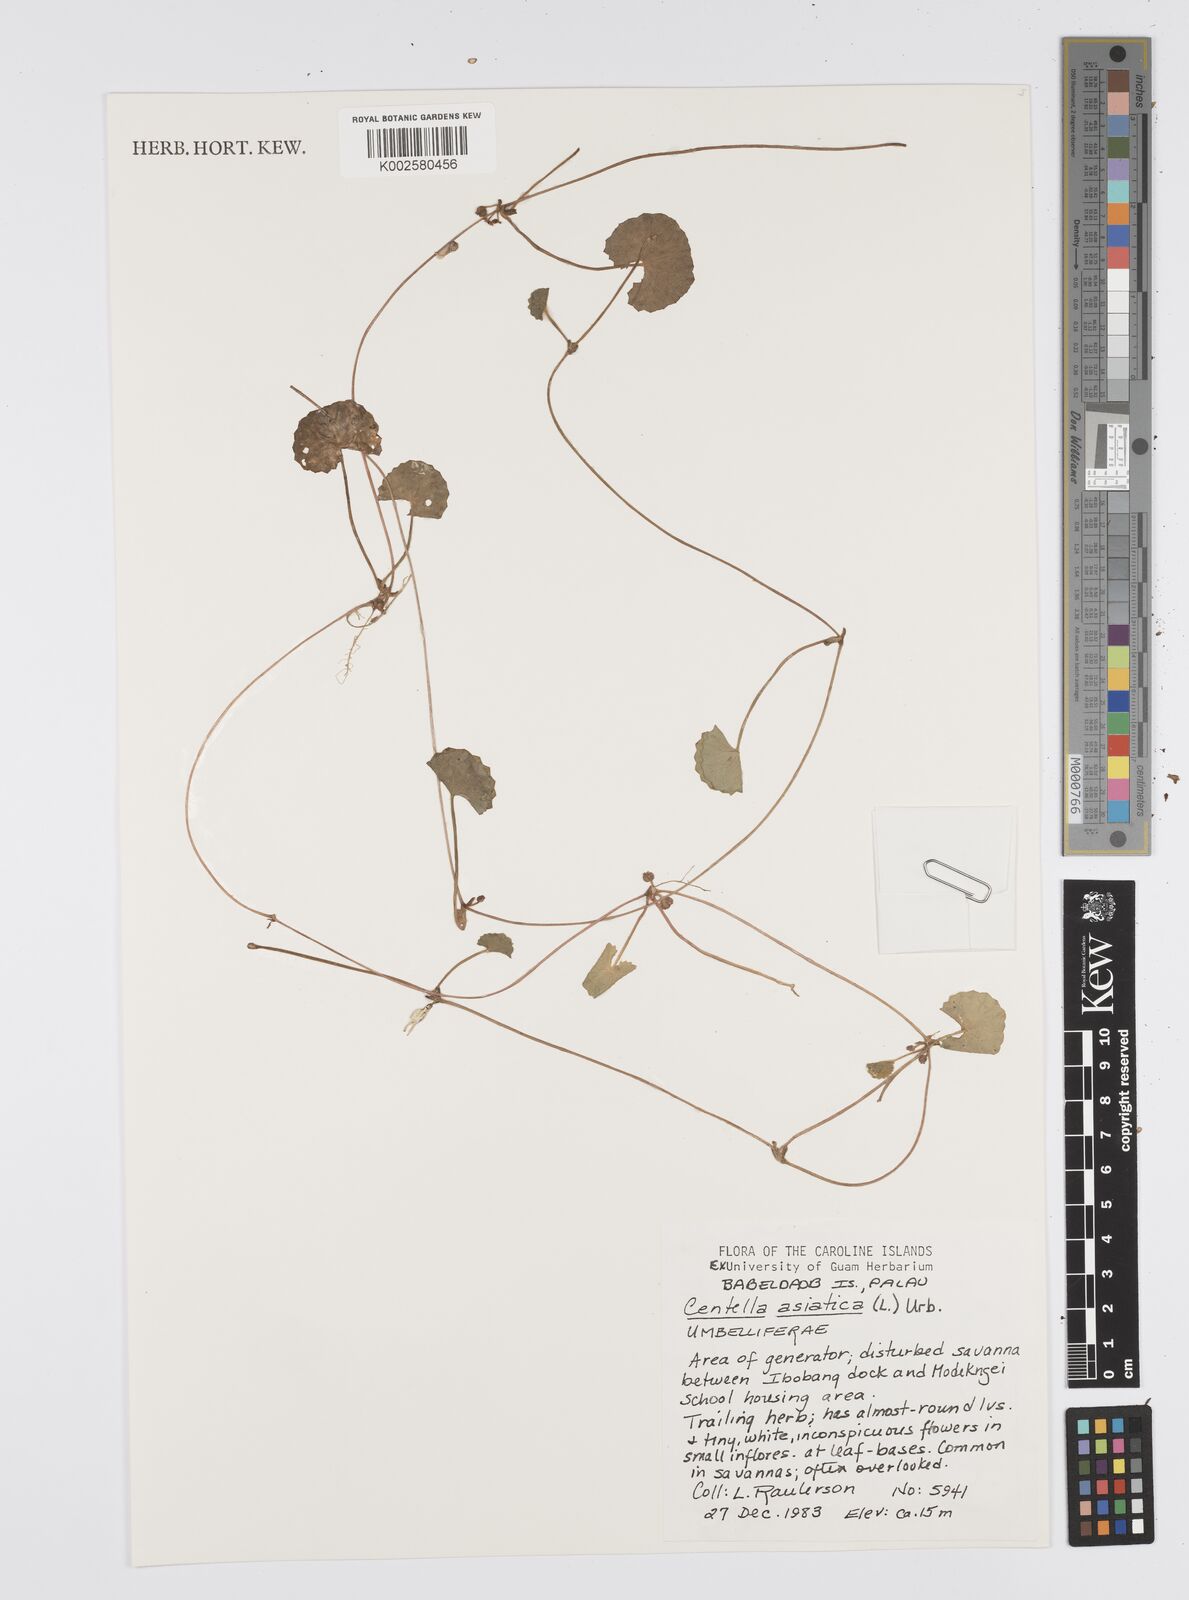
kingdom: Plantae
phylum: Tracheophyta
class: Magnoliopsida
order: Apiales
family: Apiaceae
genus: Centella
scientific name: Centella asiatica
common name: Spadeleaf
